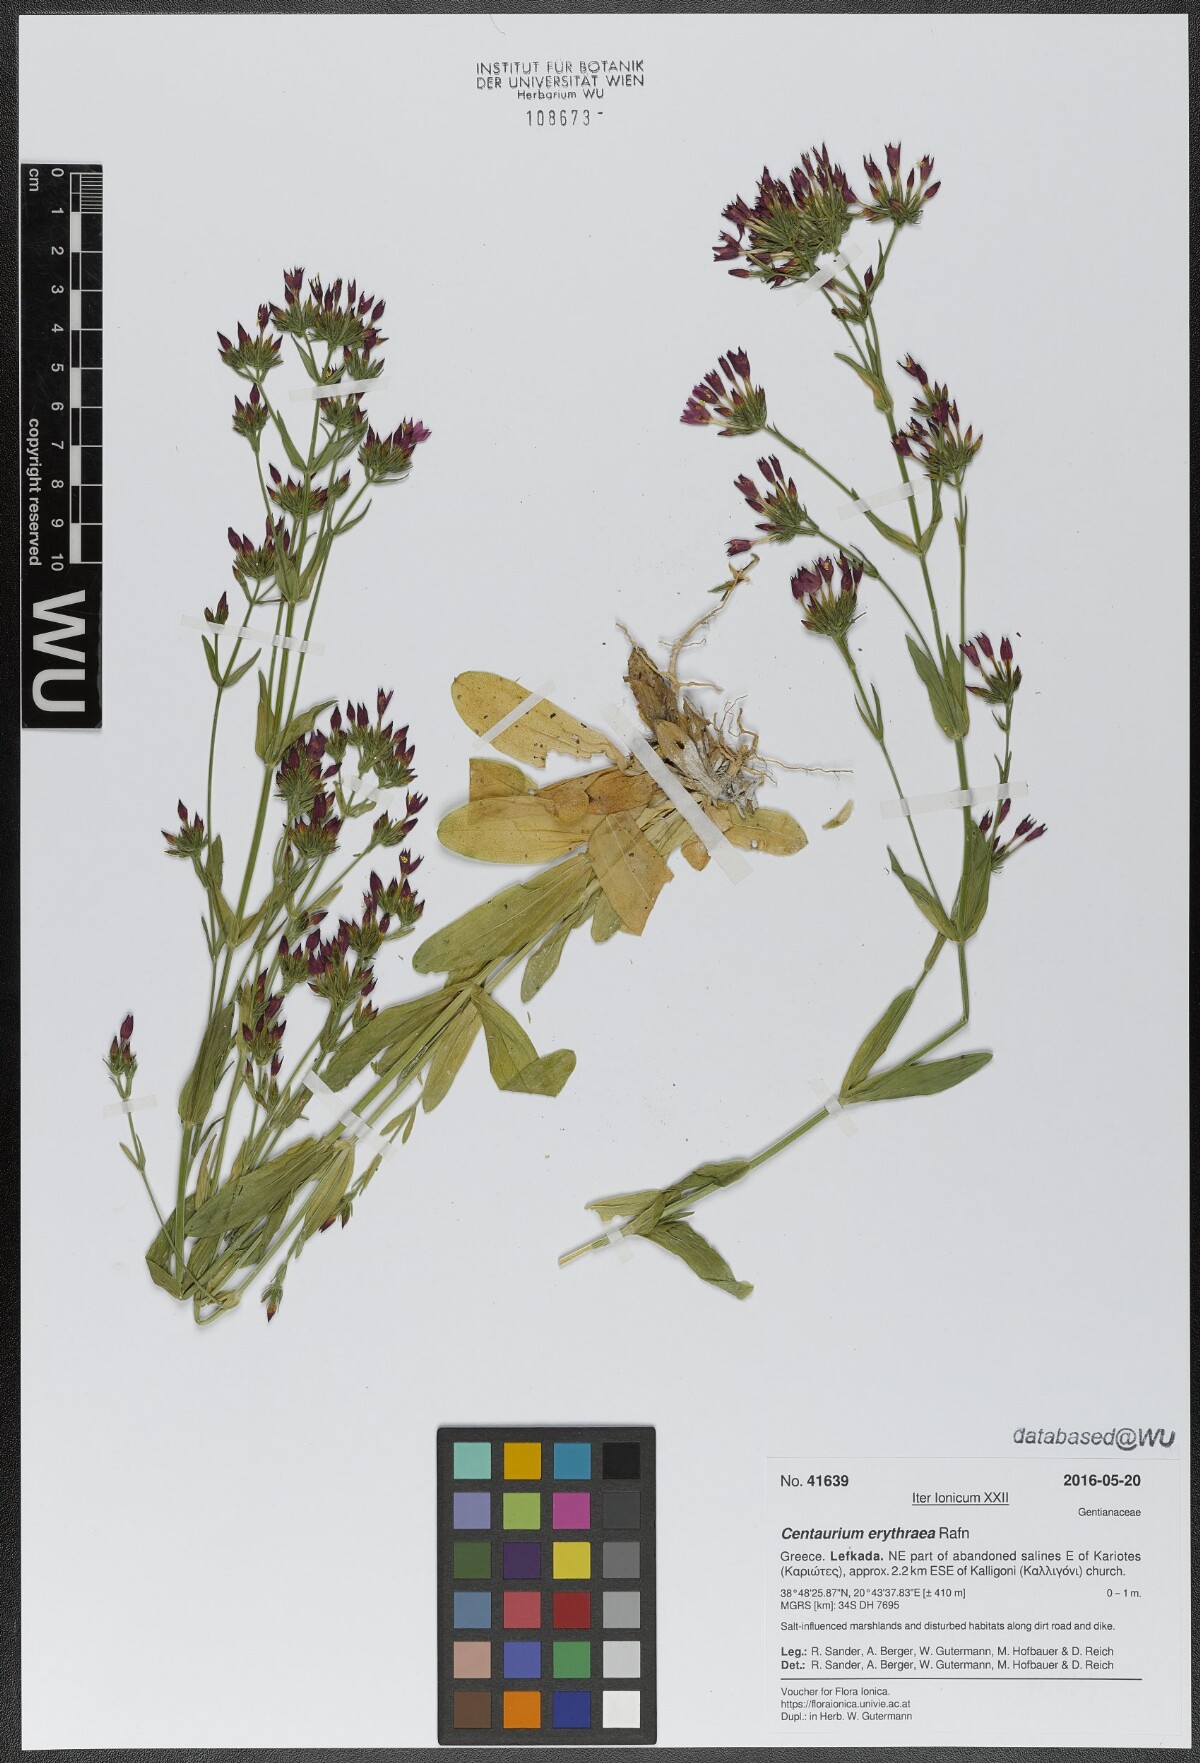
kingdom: Plantae
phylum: Tracheophyta
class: Magnoliopsida
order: Gentianales
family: Gentianaceae
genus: Centaurium
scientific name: Centaurium erythraea
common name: Common centaury
